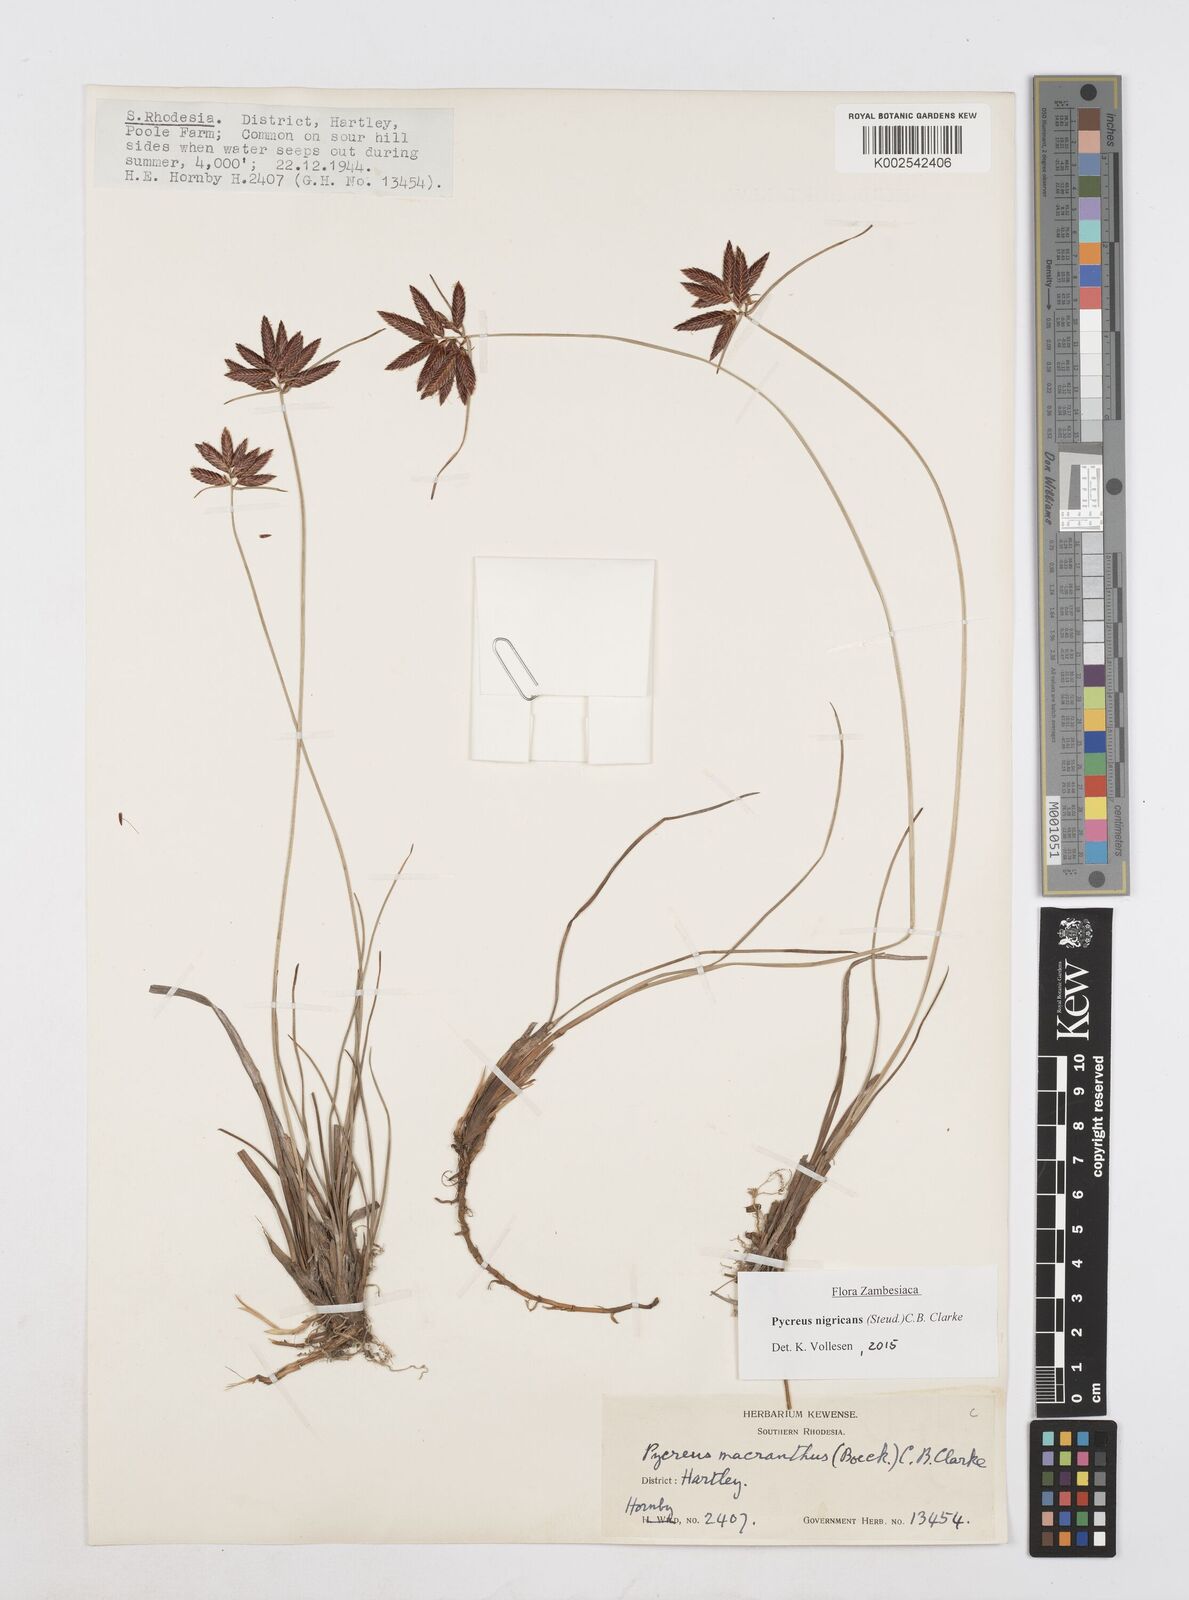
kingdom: Plantae
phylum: Tracheophyta
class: Liliopsida
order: Poales
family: Cyperaceae
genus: Cyperus
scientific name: Cyperus nigricans
